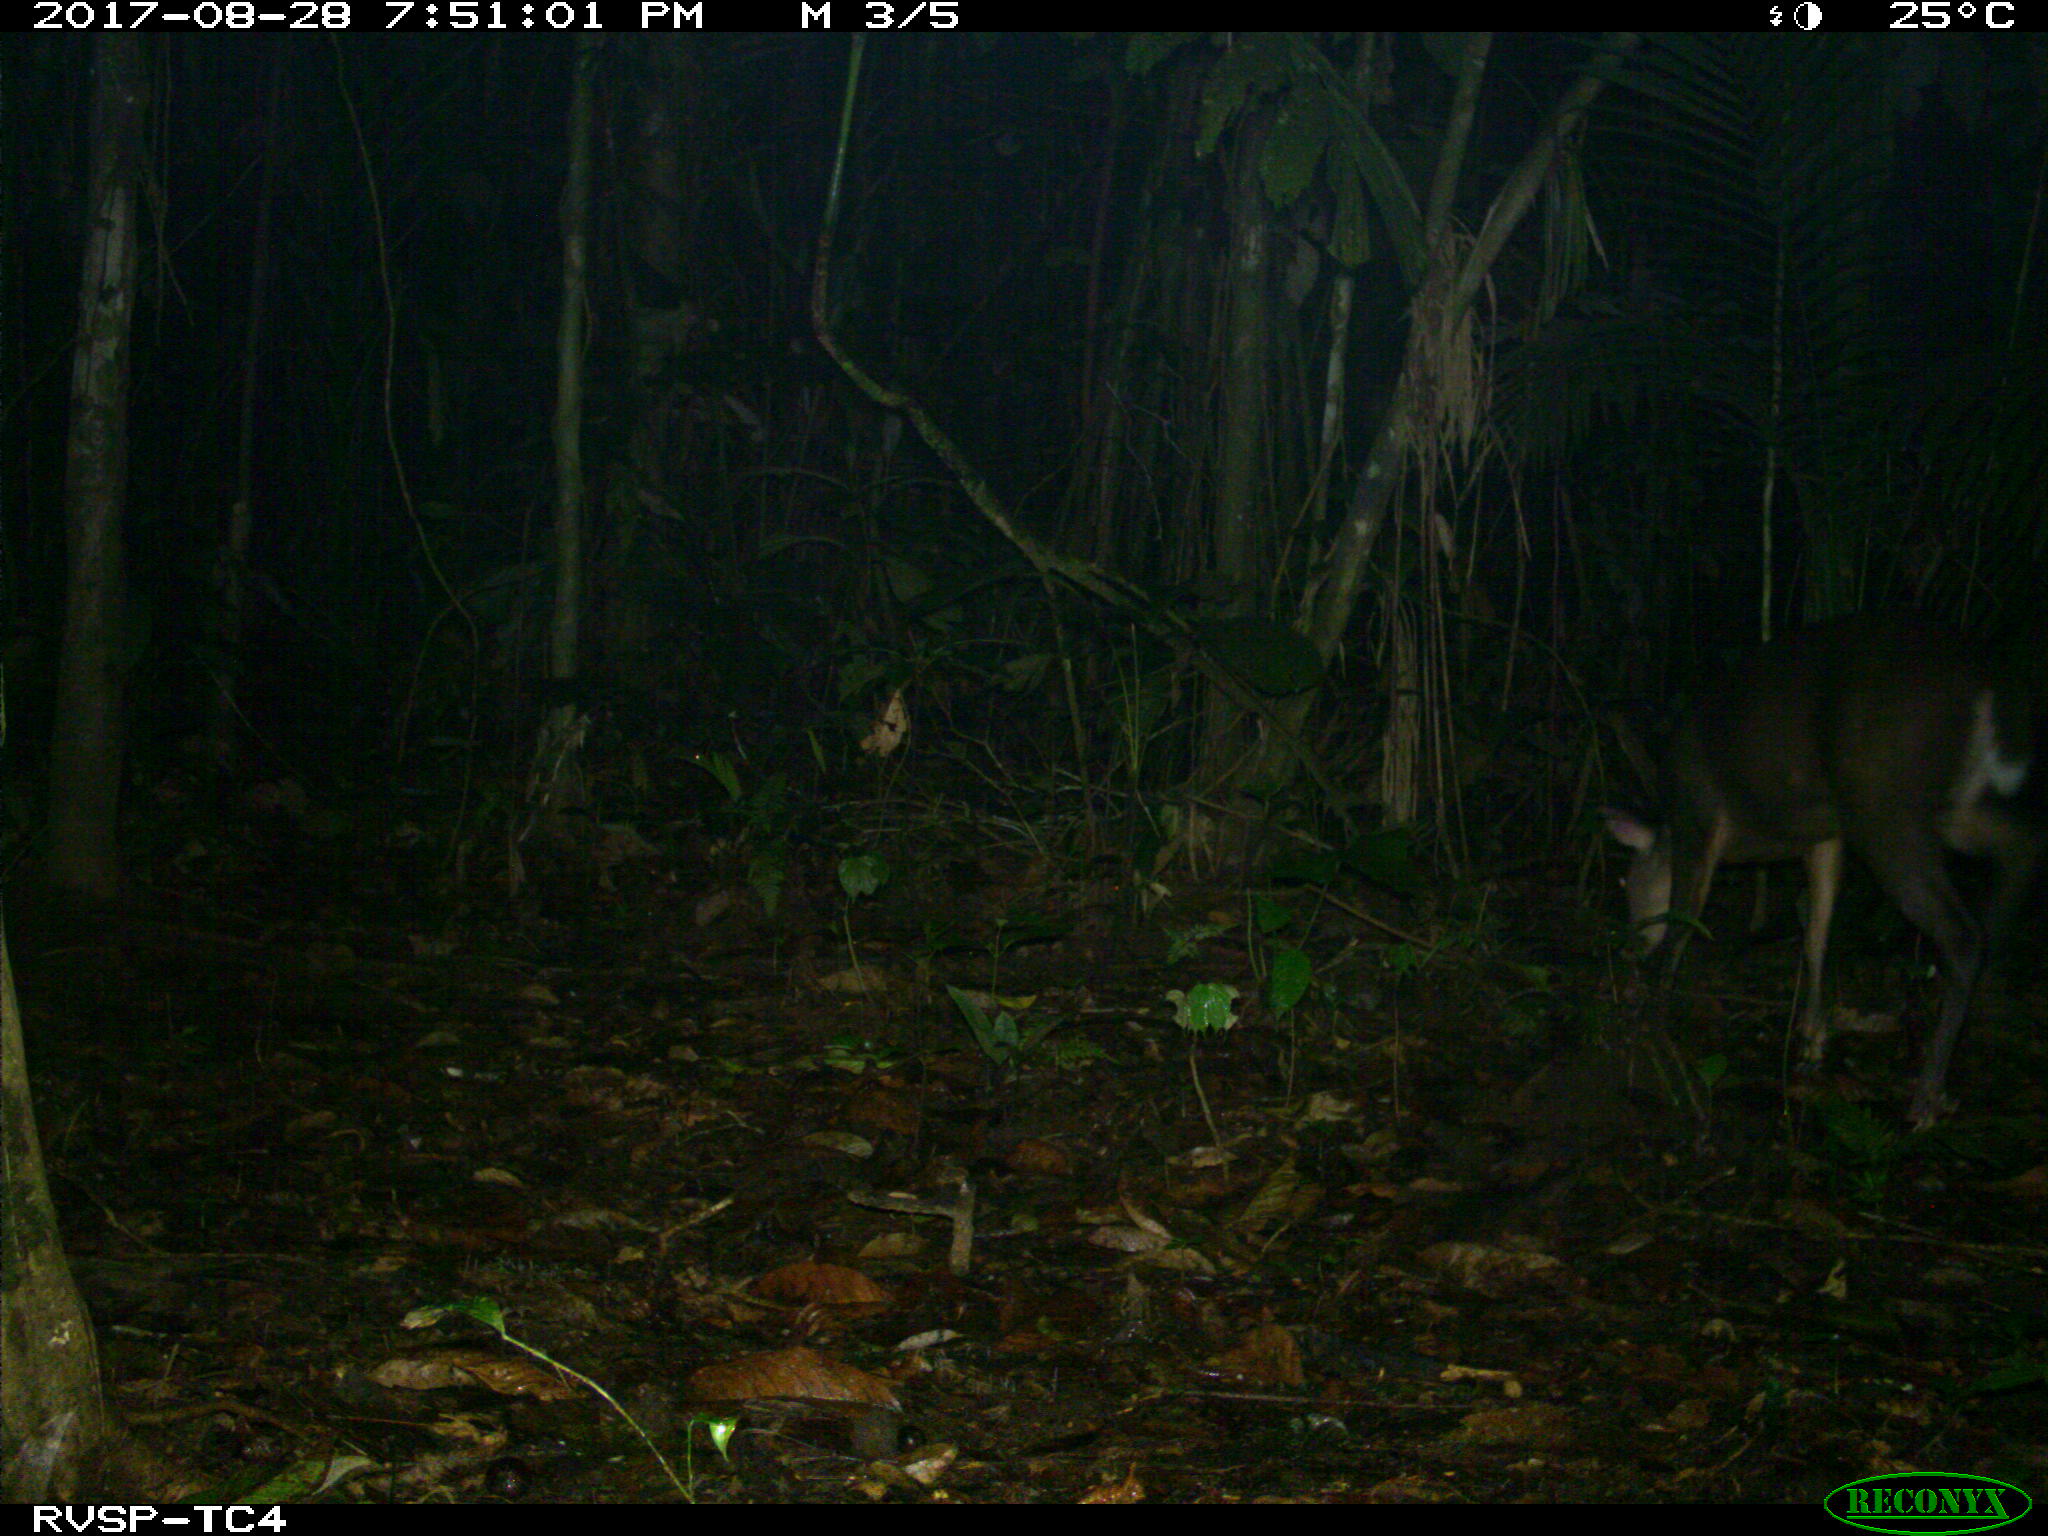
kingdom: Animalia
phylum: Chordata
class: Mammalia
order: Artiodactyla
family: Cervidae
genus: Mazama
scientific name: Mazama americana
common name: Red brocket
